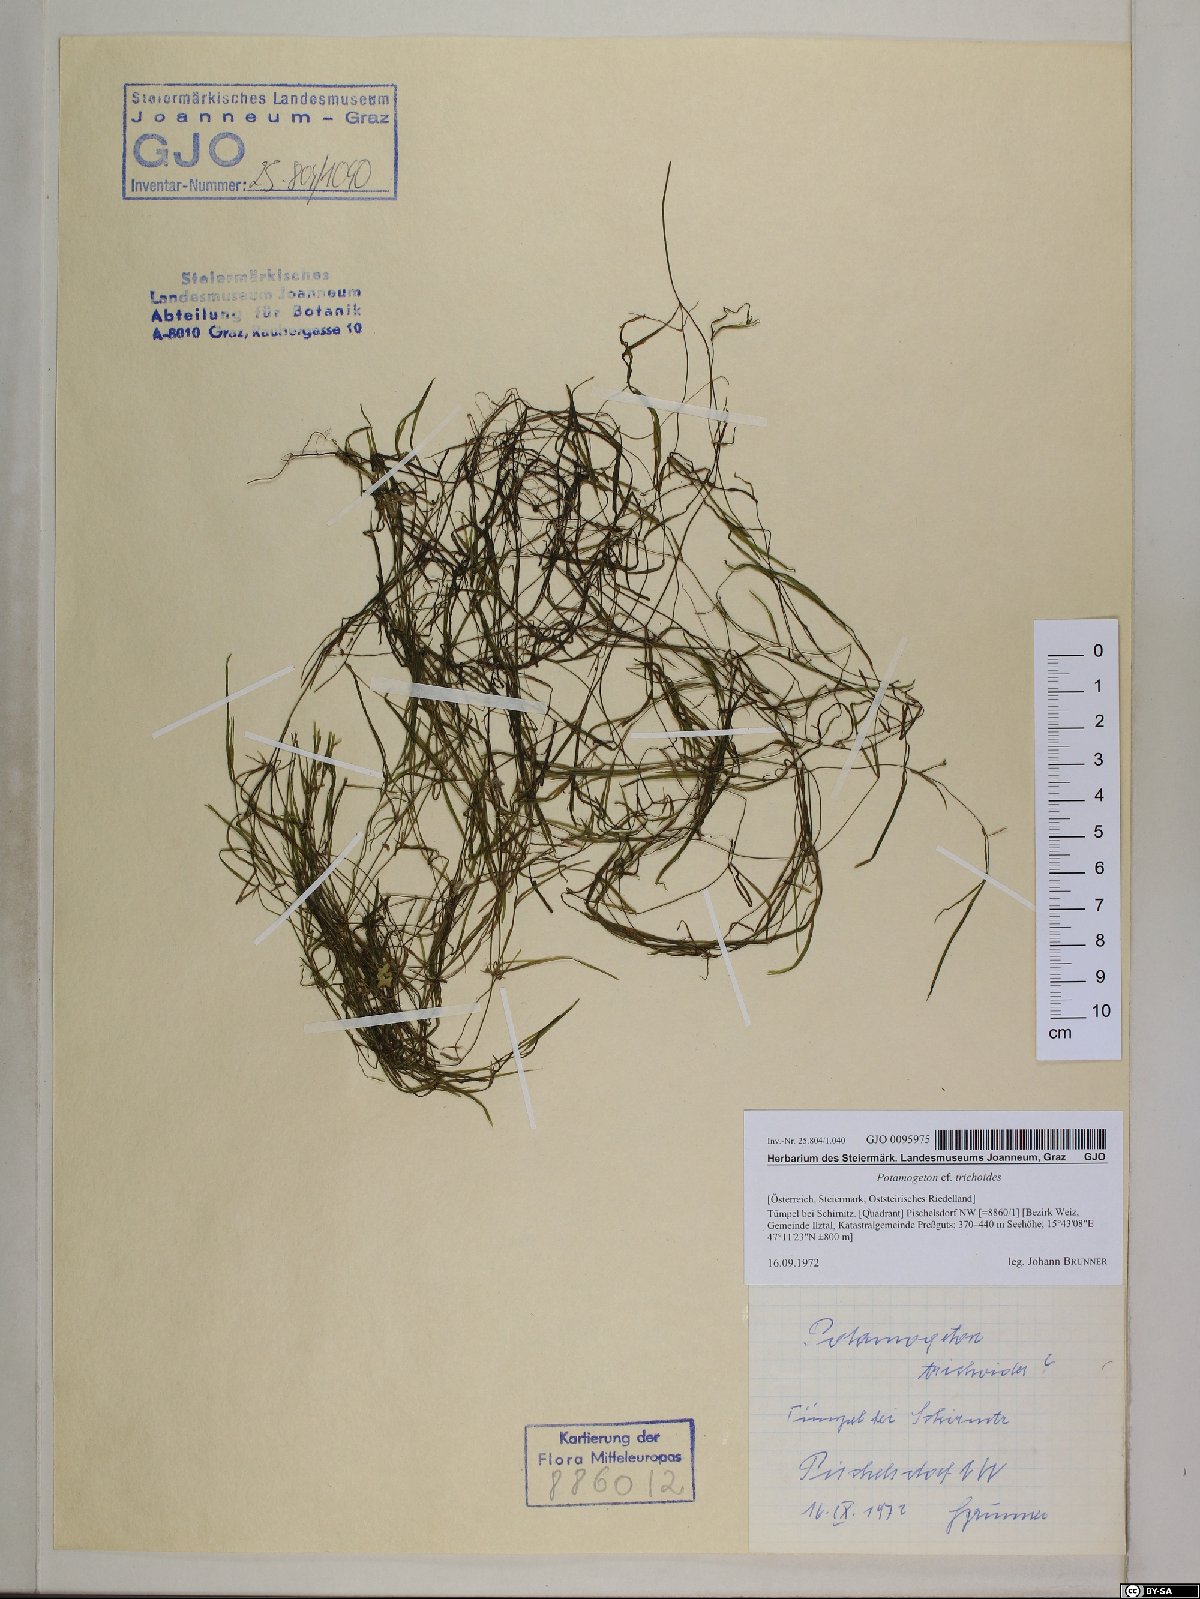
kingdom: Plantae
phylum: Tracheophyta
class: Liliopsida
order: Alismatales
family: Potamogetonaceae
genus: Potamogeton
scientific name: Potamogeton trichoides
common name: Hairlike pondweed
